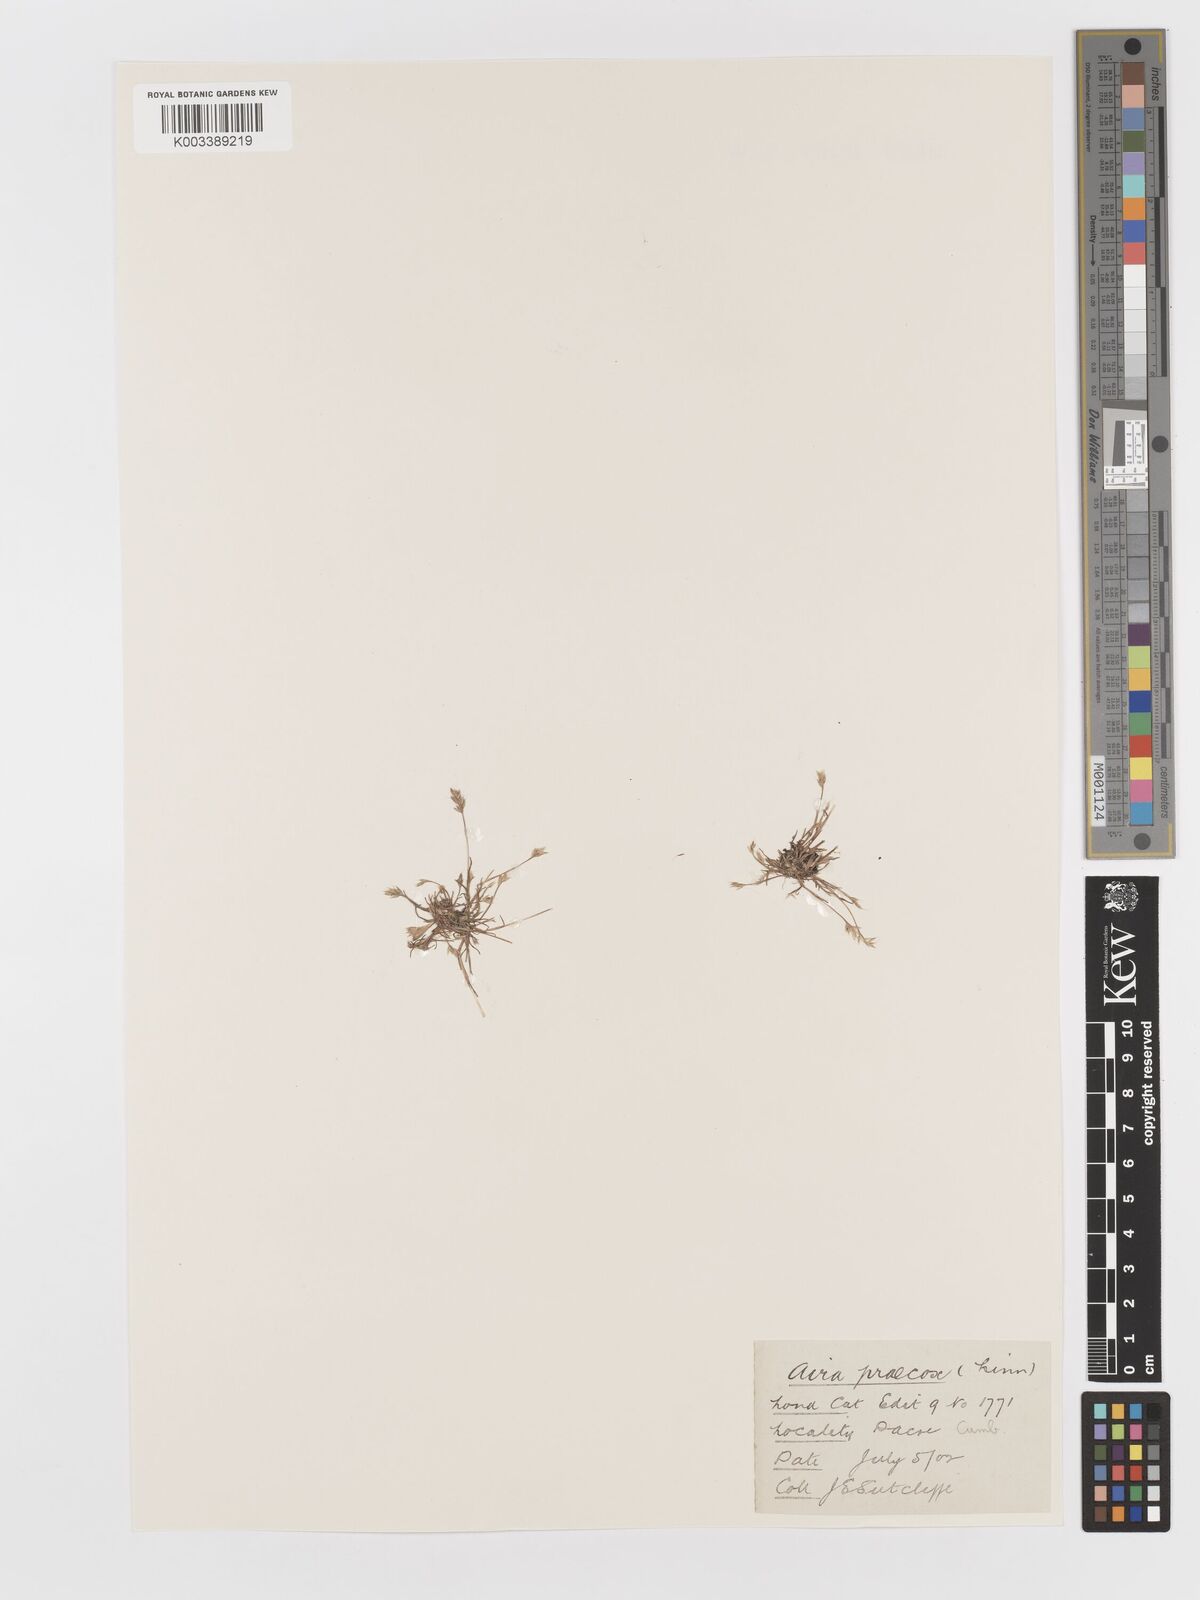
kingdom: Plantae
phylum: Tracheophyta
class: Liliopsida
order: Poales
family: Poaceae
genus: Aira
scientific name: Aira praecox
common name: Early hair-grass
